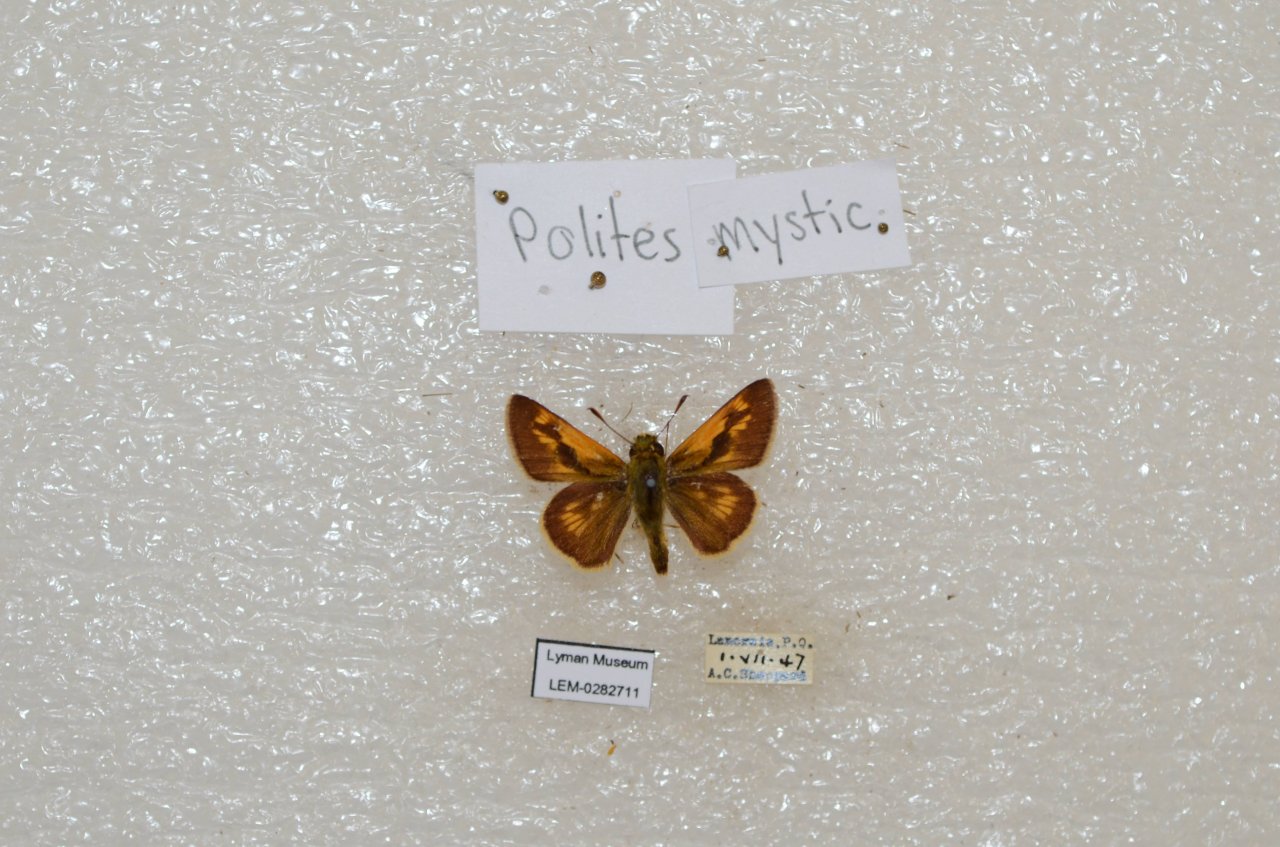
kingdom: Animalia
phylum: Arthropoda
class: Insecta
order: Lepidoptera
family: Hesperiidae
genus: Polites
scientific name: Polites
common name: Long Dash Skipper
